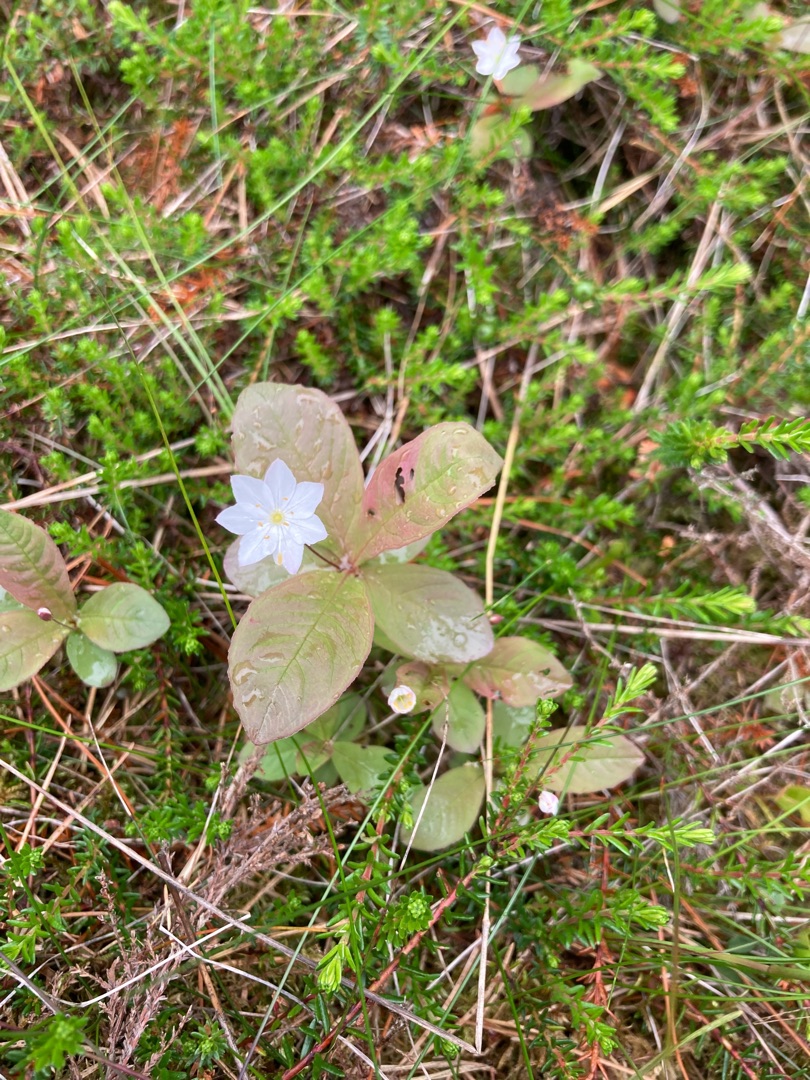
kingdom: Plantae
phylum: Tracheophyta
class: Magnoliopsida
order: Ericales
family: Primulaceae
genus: Lysimachia
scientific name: Lysimachia europaea
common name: Skovstjerne
